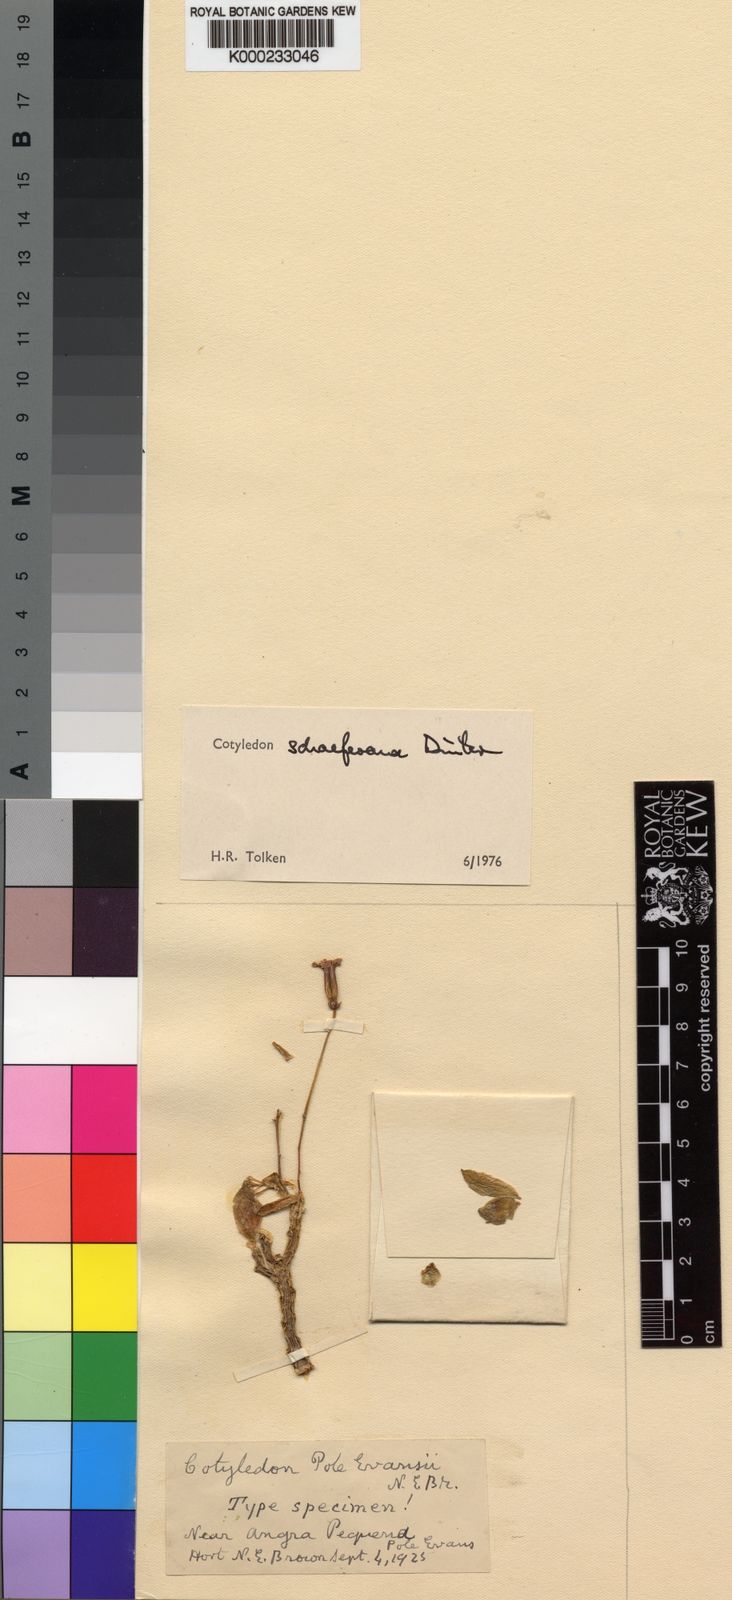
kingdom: Plantae
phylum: Tracheophyta
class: Magnoliopsida
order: Saxifragales
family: Crassulaceae
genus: Tylecodon
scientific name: Tylecodon
